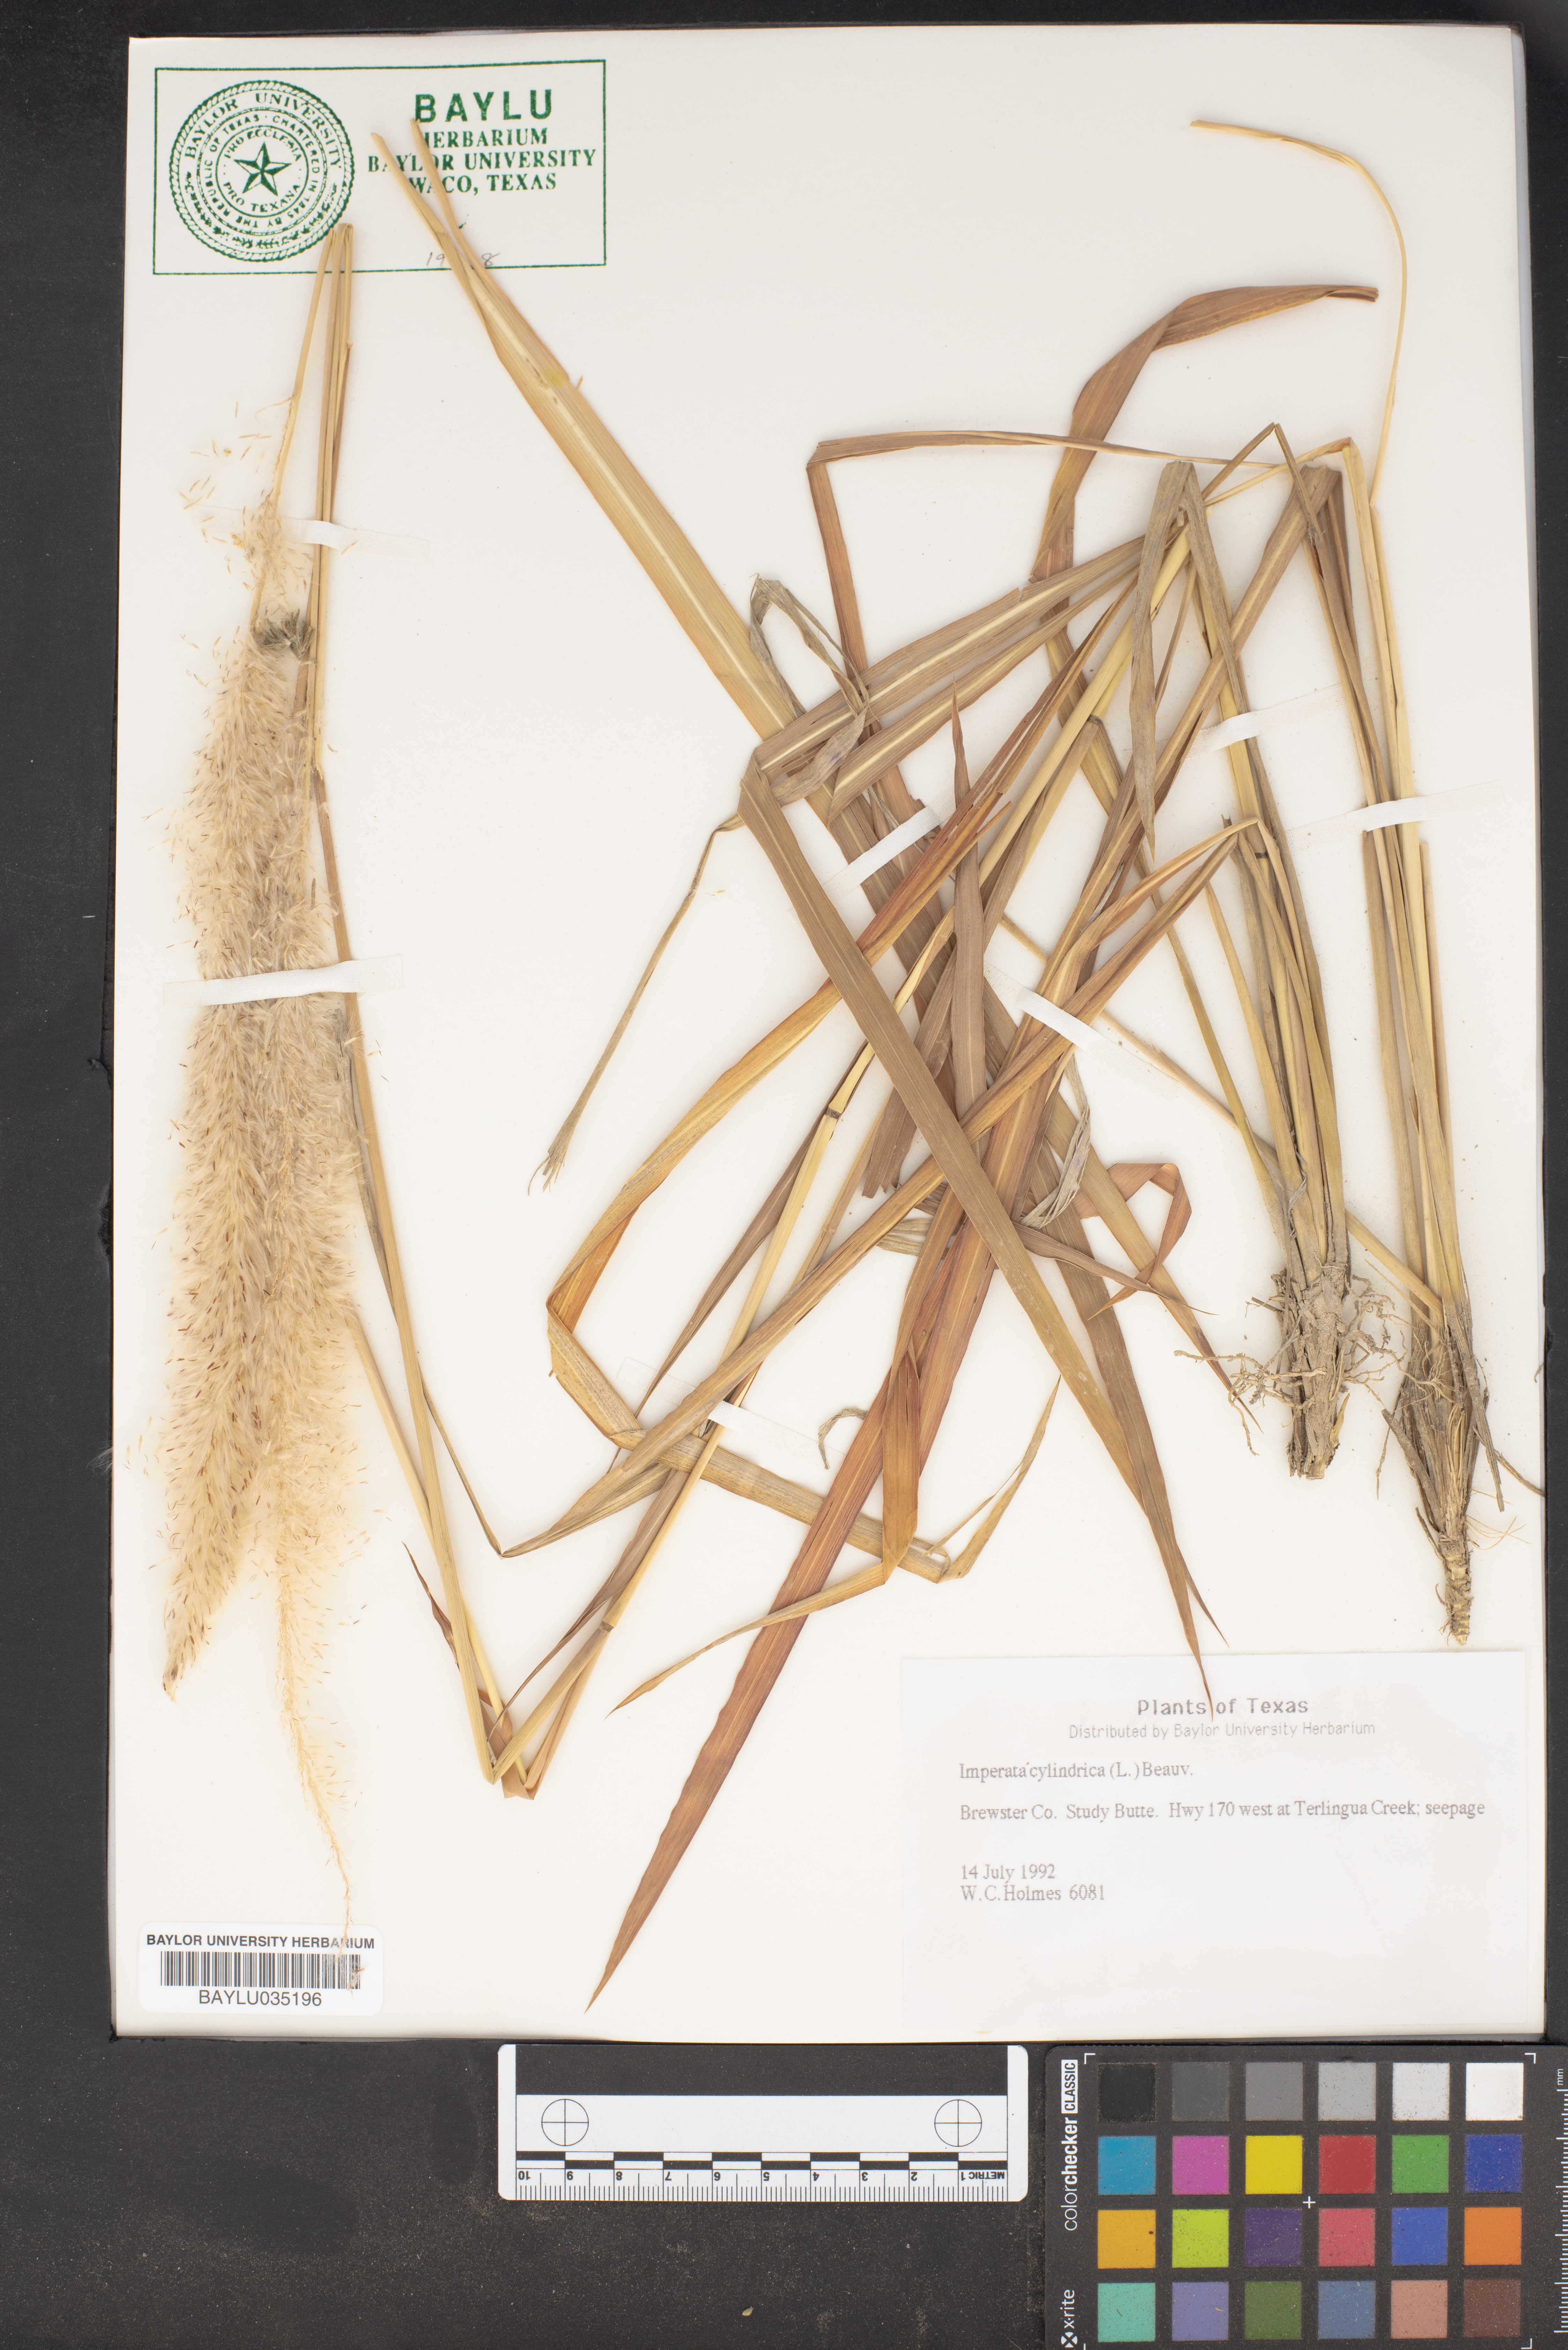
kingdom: Plantae
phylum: Tracheophyta
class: Liliopsida
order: Poales
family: Poaceae
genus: Imperata
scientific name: Imperata cylindrica
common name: Cogongrass
